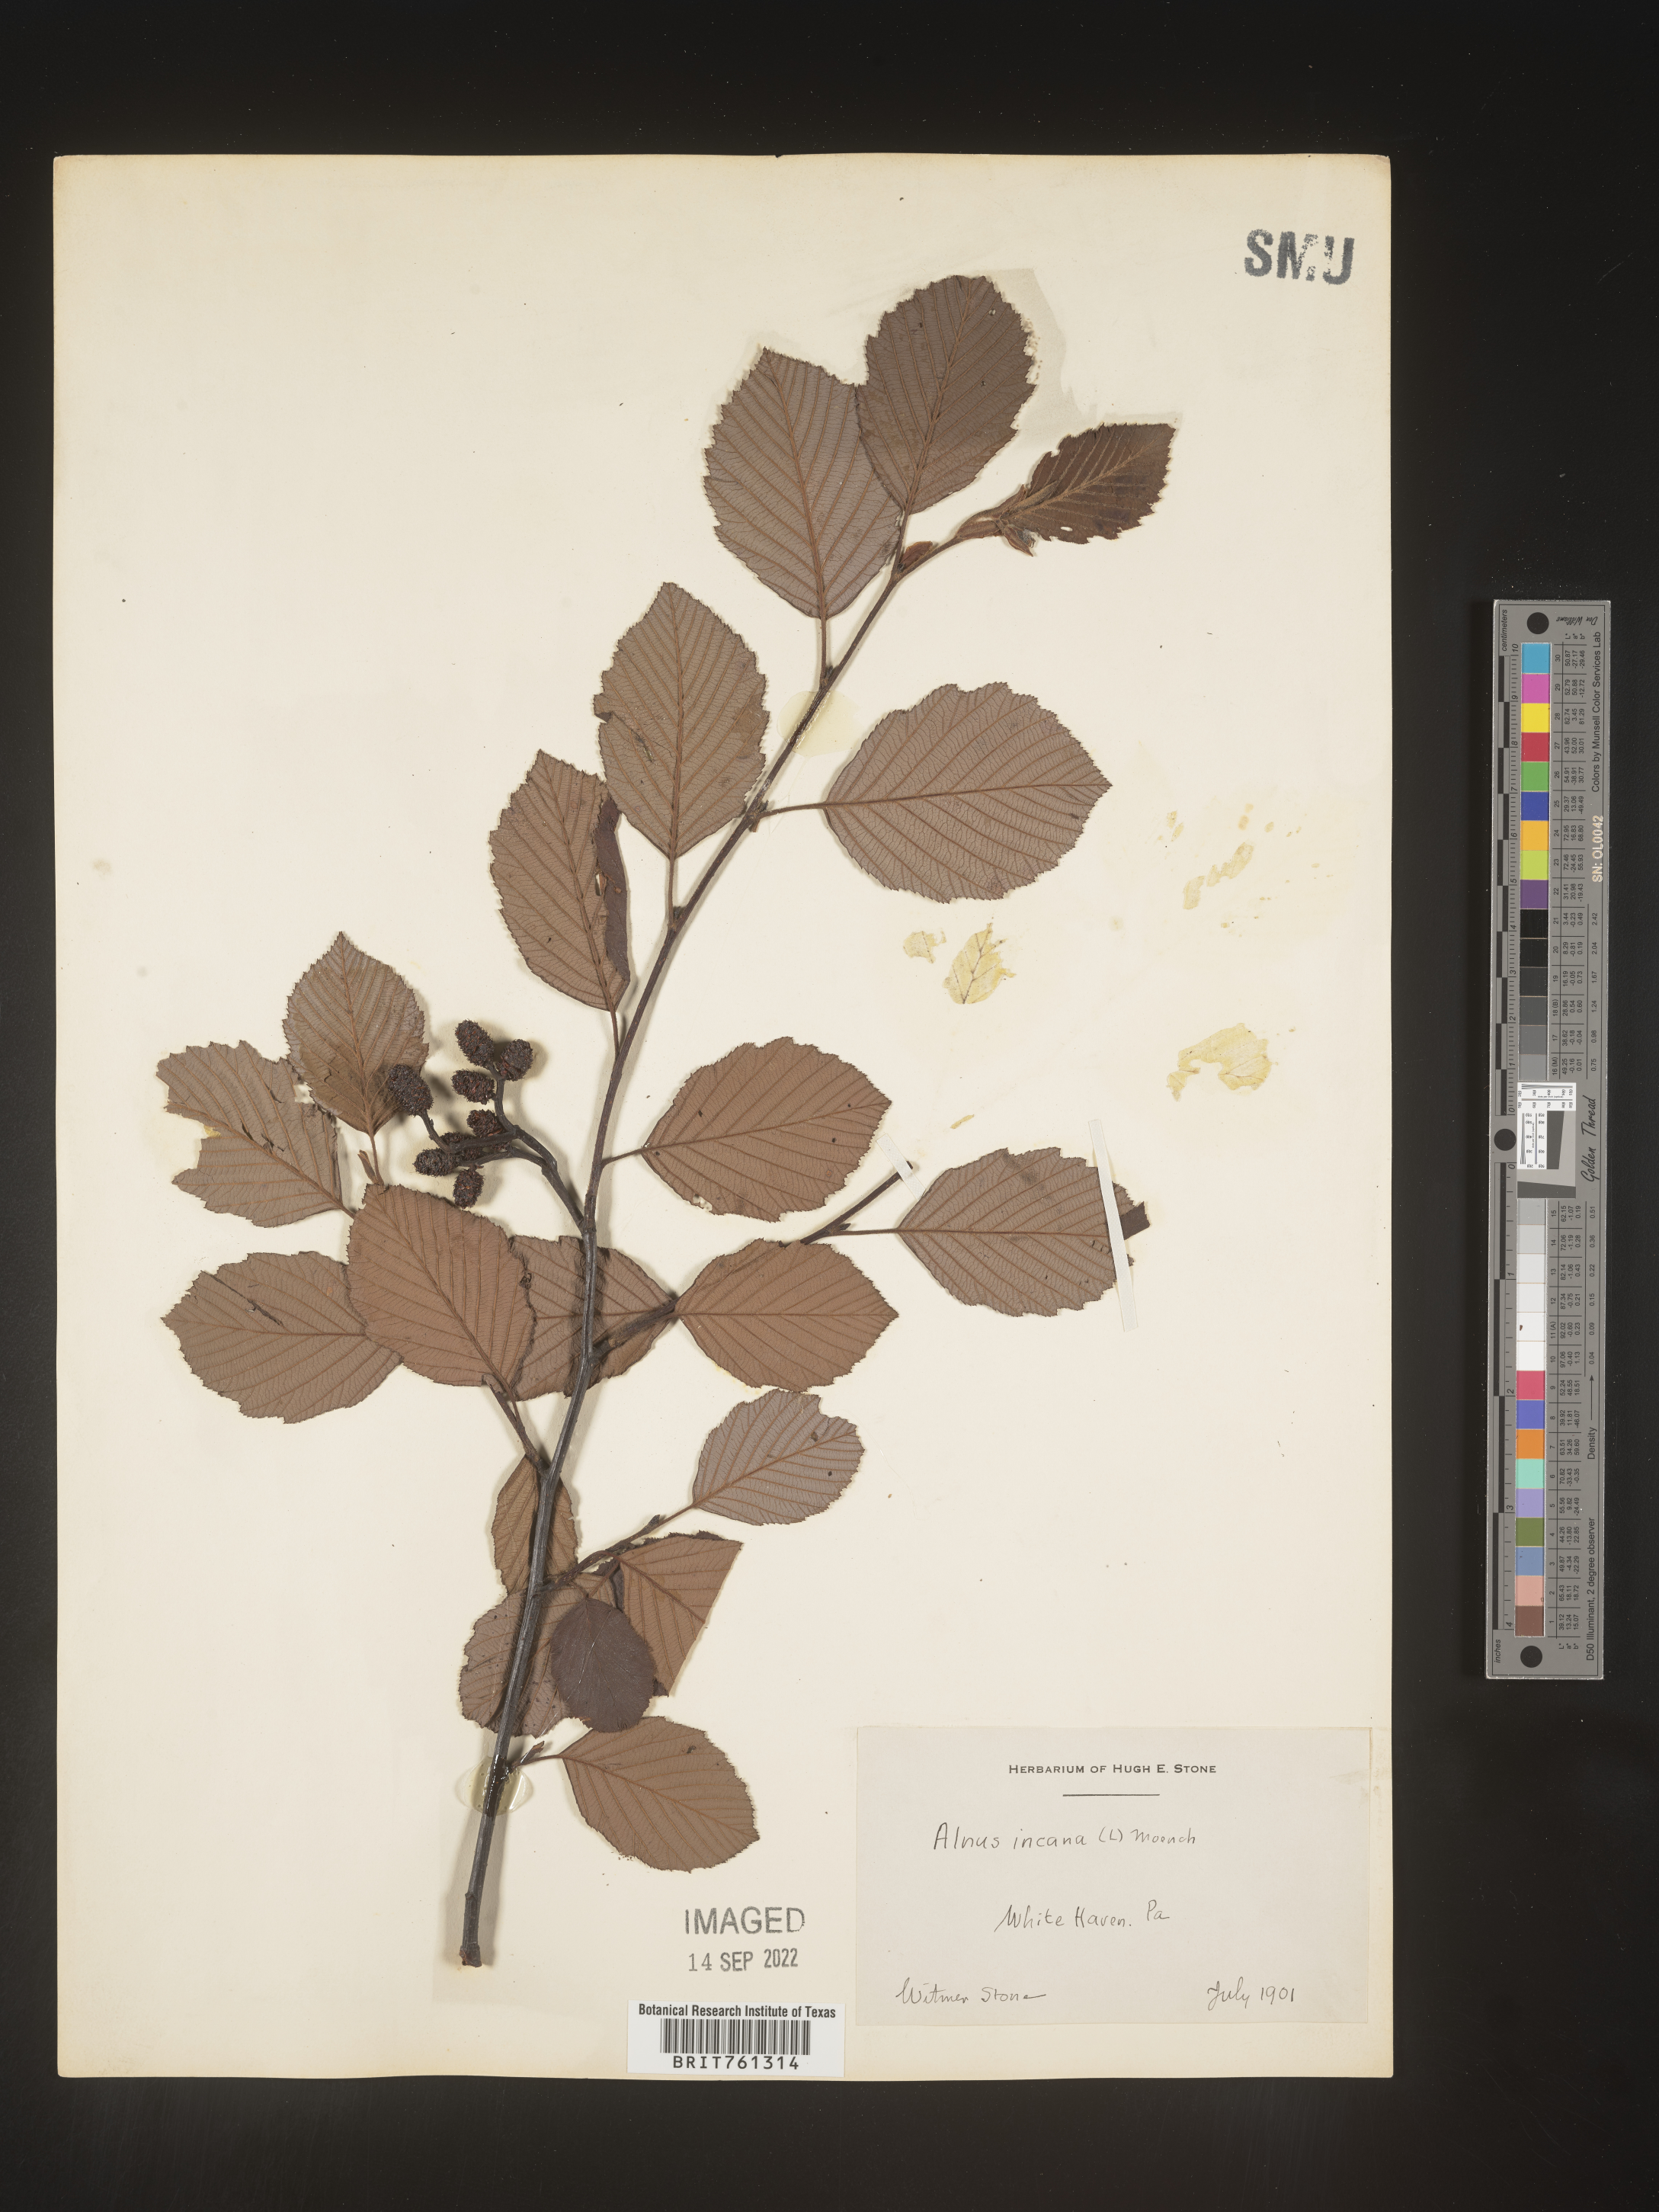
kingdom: Plantae
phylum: Tracheophyta
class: Magnoliopsida
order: Fagales
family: Betulaceae
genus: Alnus
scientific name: Alnus incana
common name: Grey alder
